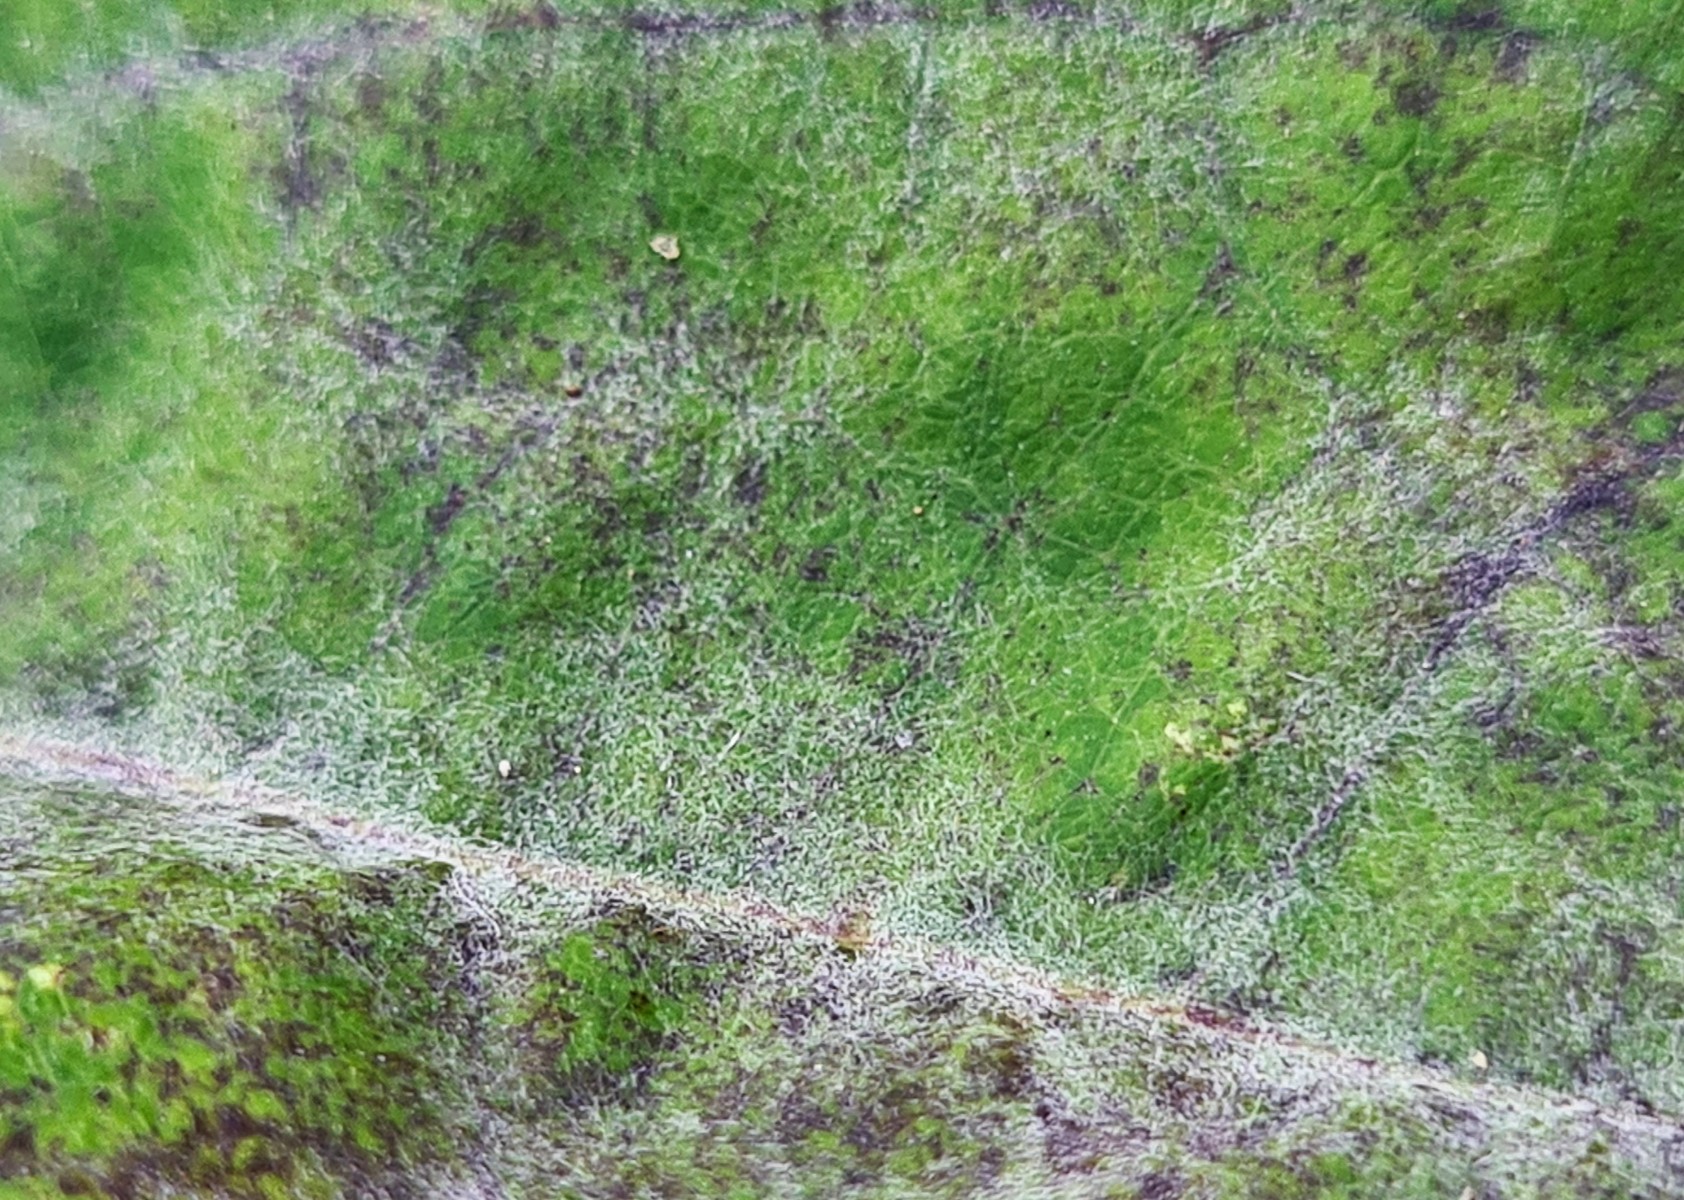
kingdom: Fungi
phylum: Ascomycota
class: Leotiomycetes
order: Helotiales
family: Erysiphaceae
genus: Erysiphe
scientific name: Erysiphe akebiae
